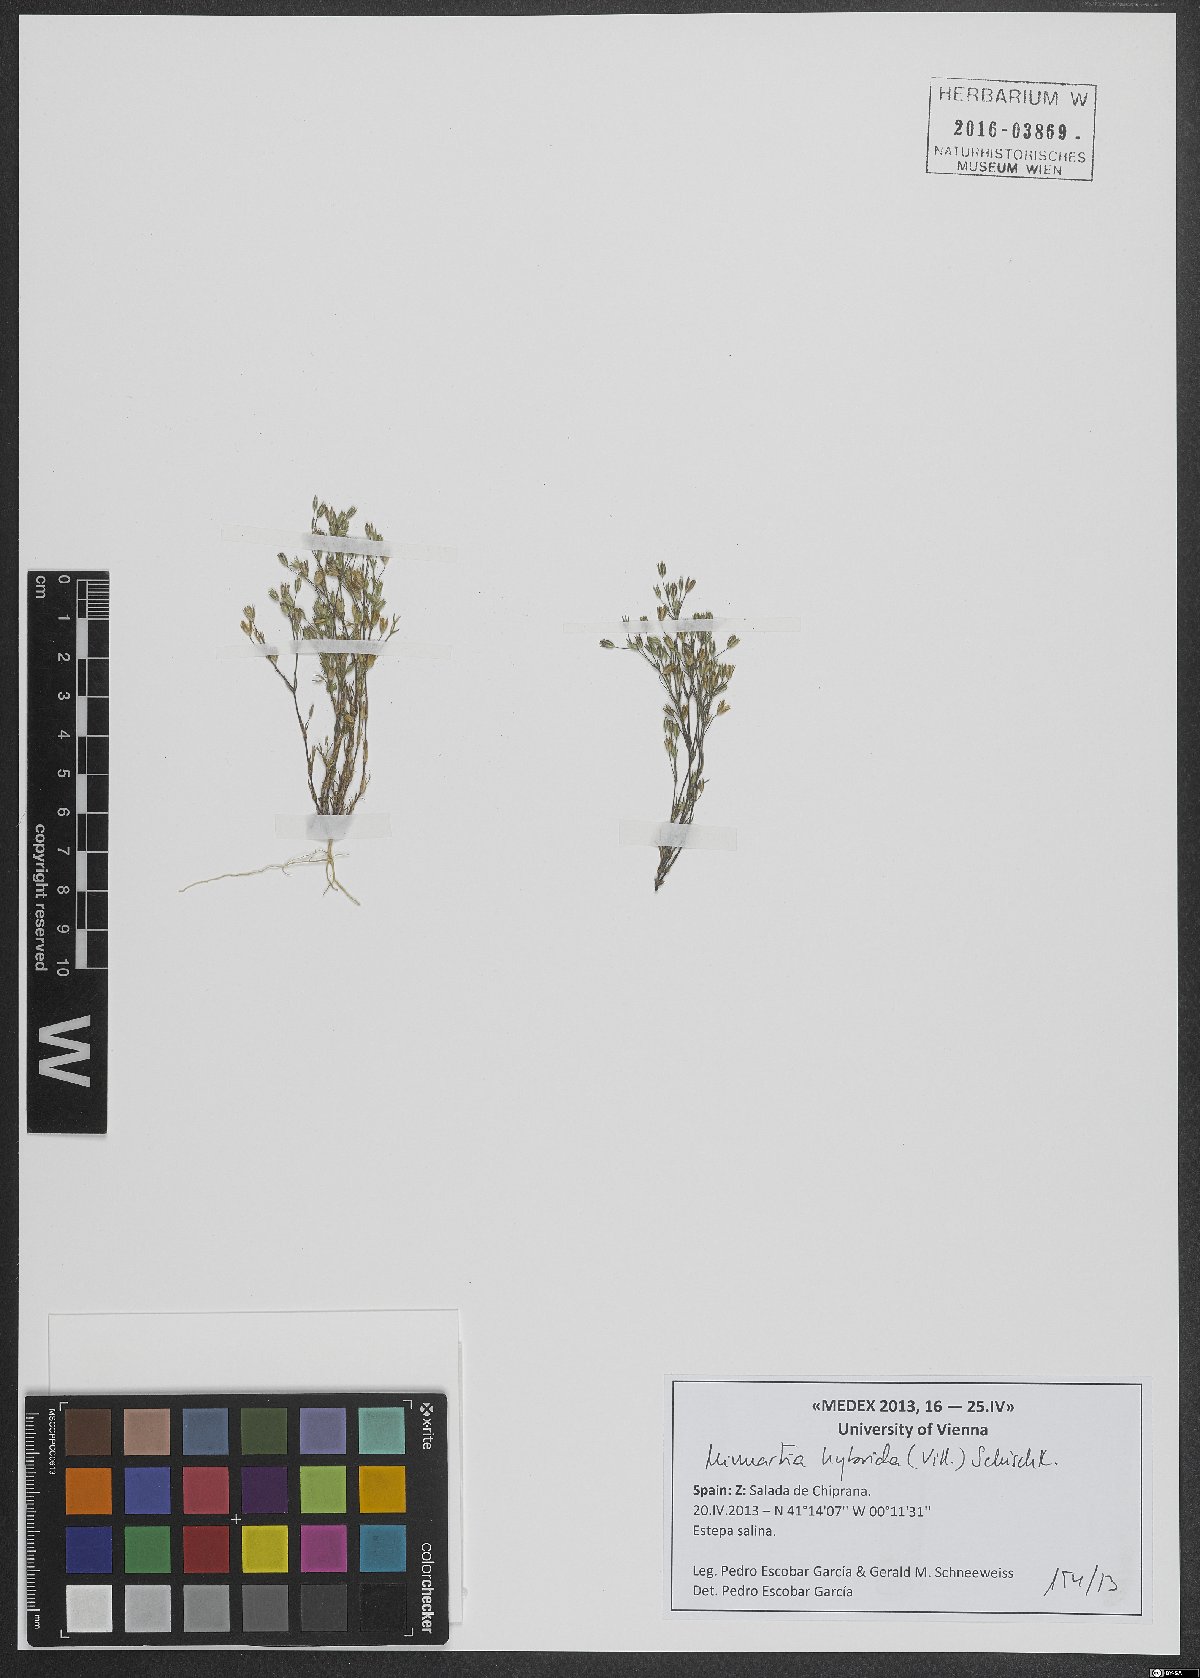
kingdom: Plantae
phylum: Tracheophyta
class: Magnoliopsida
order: Caryophyllales
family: Caryophyllaceae
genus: Sabulina
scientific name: Sabulina tenuifolia
